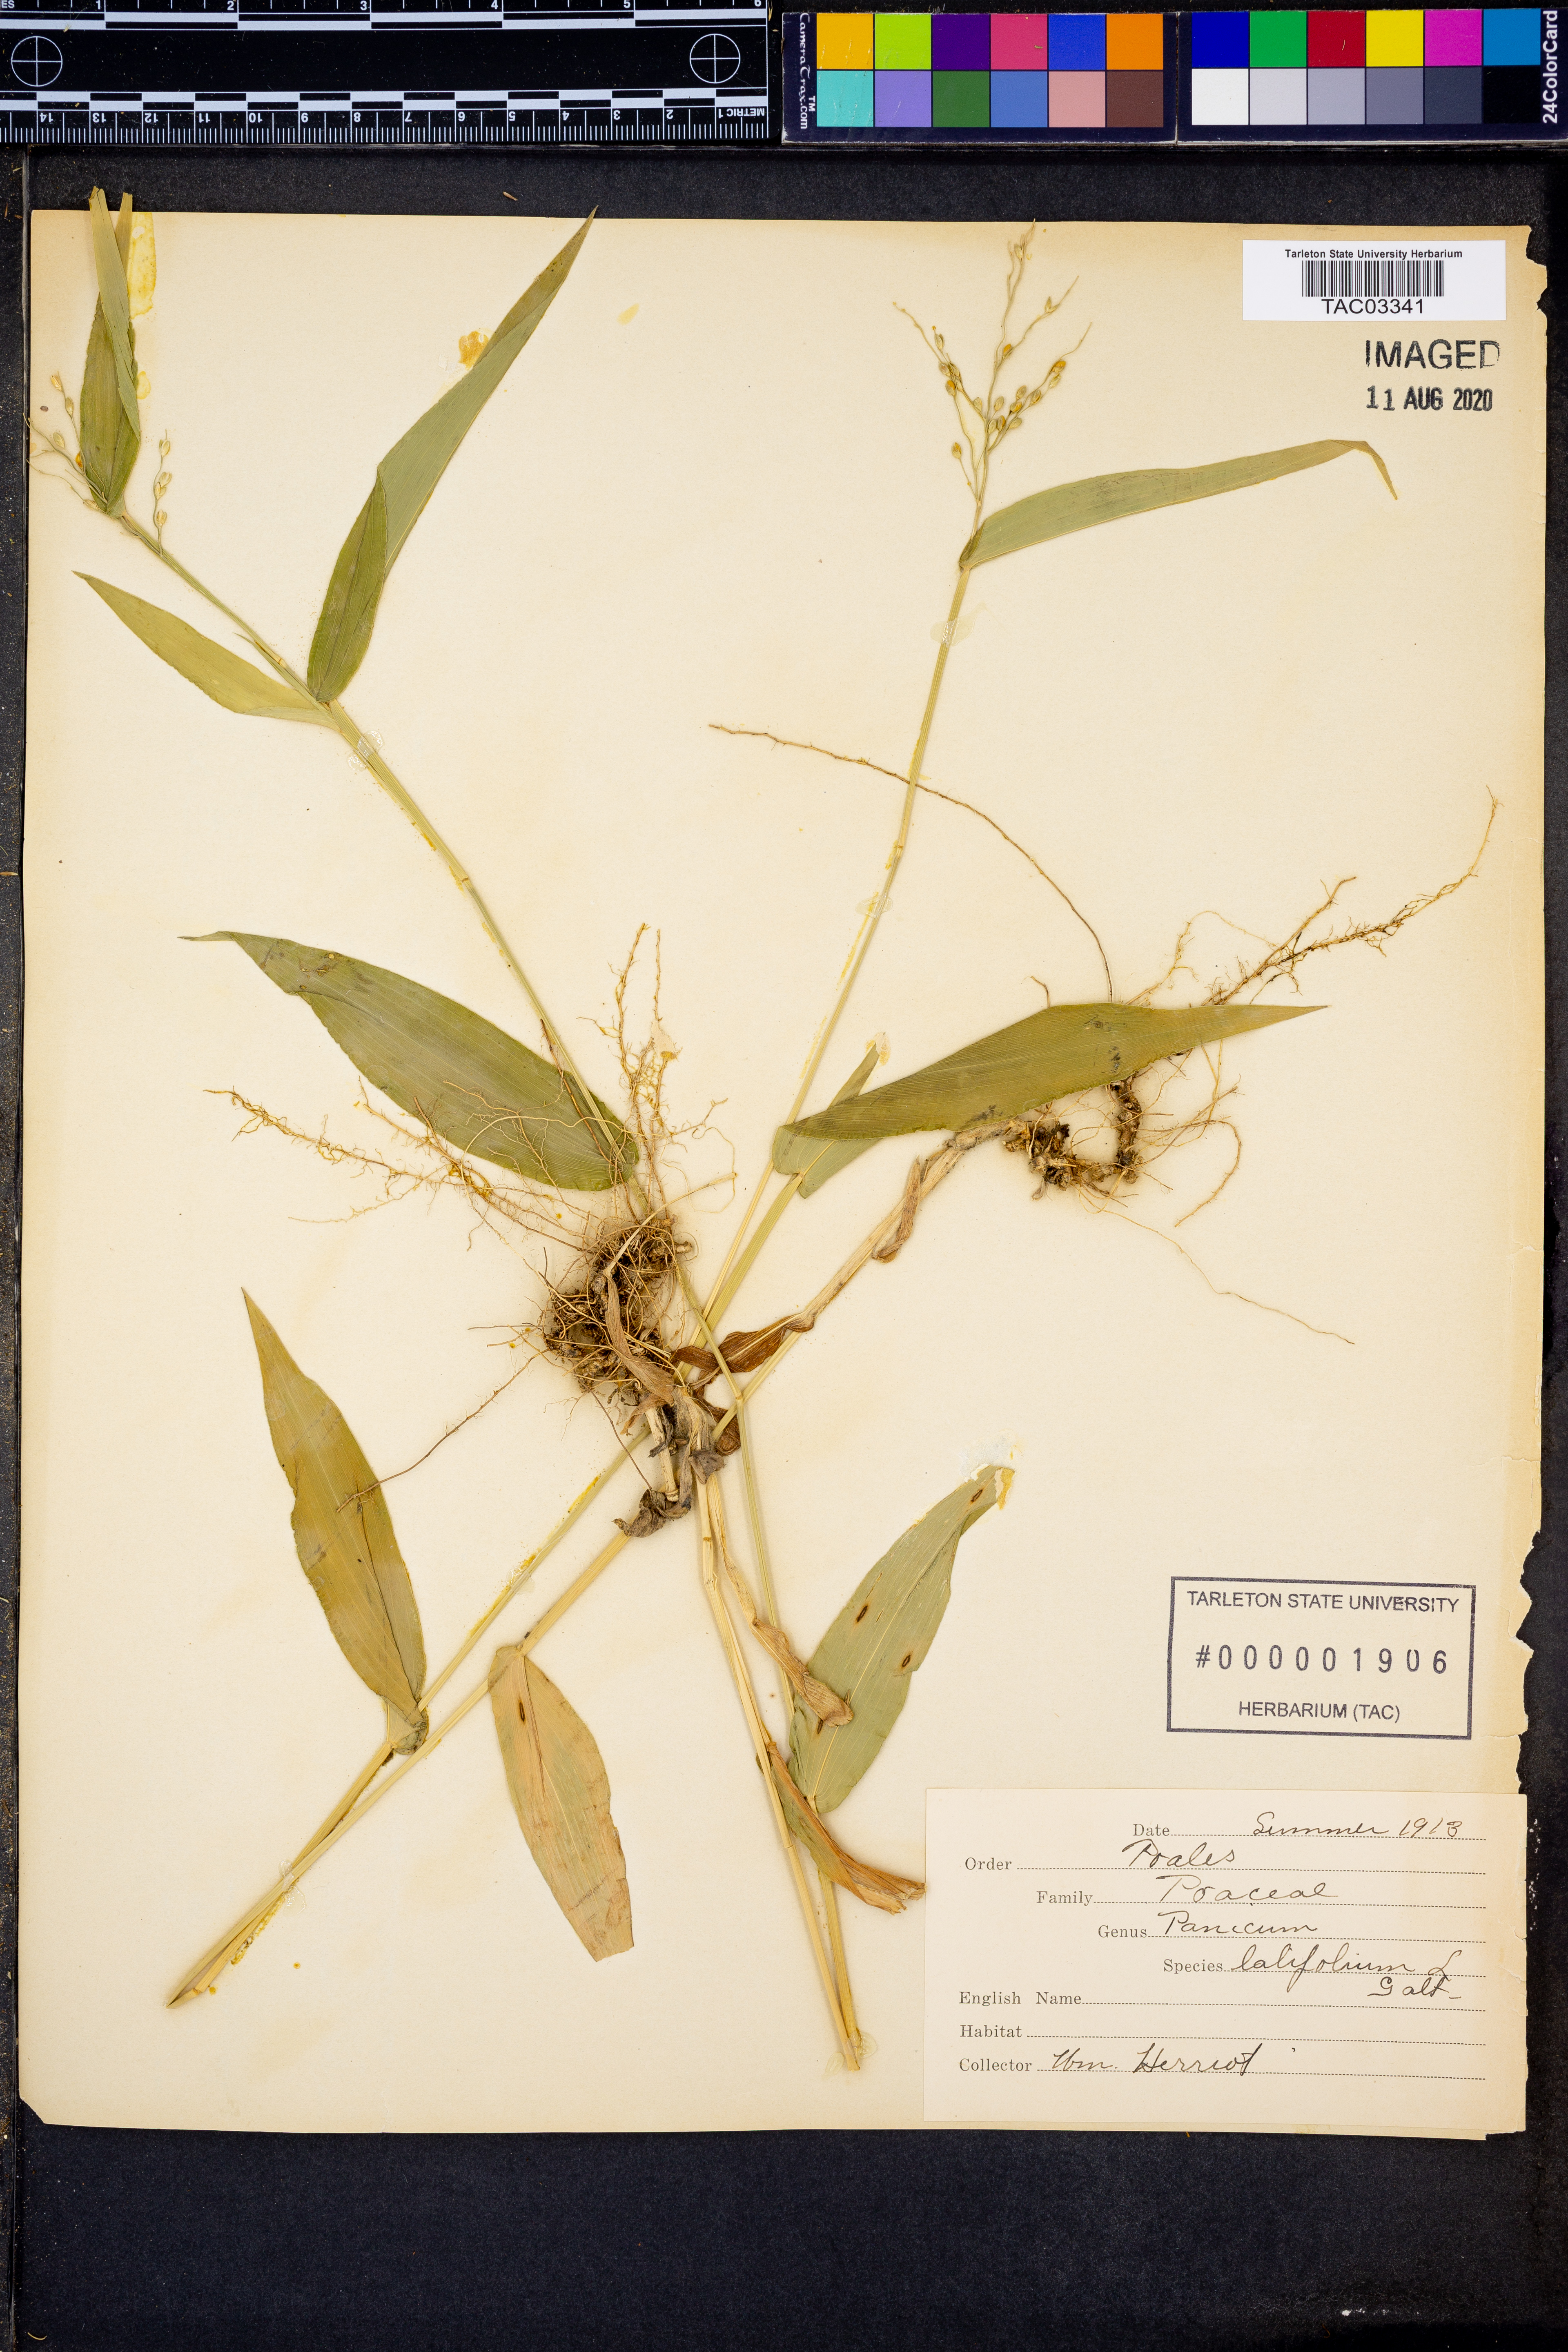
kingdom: Plantae
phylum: Tracheophyta
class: Liliopsida
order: Poales
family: Poaceae
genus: Dichanthelium
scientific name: Dichanthelium latifolium
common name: Broad-leaved panicgrass
